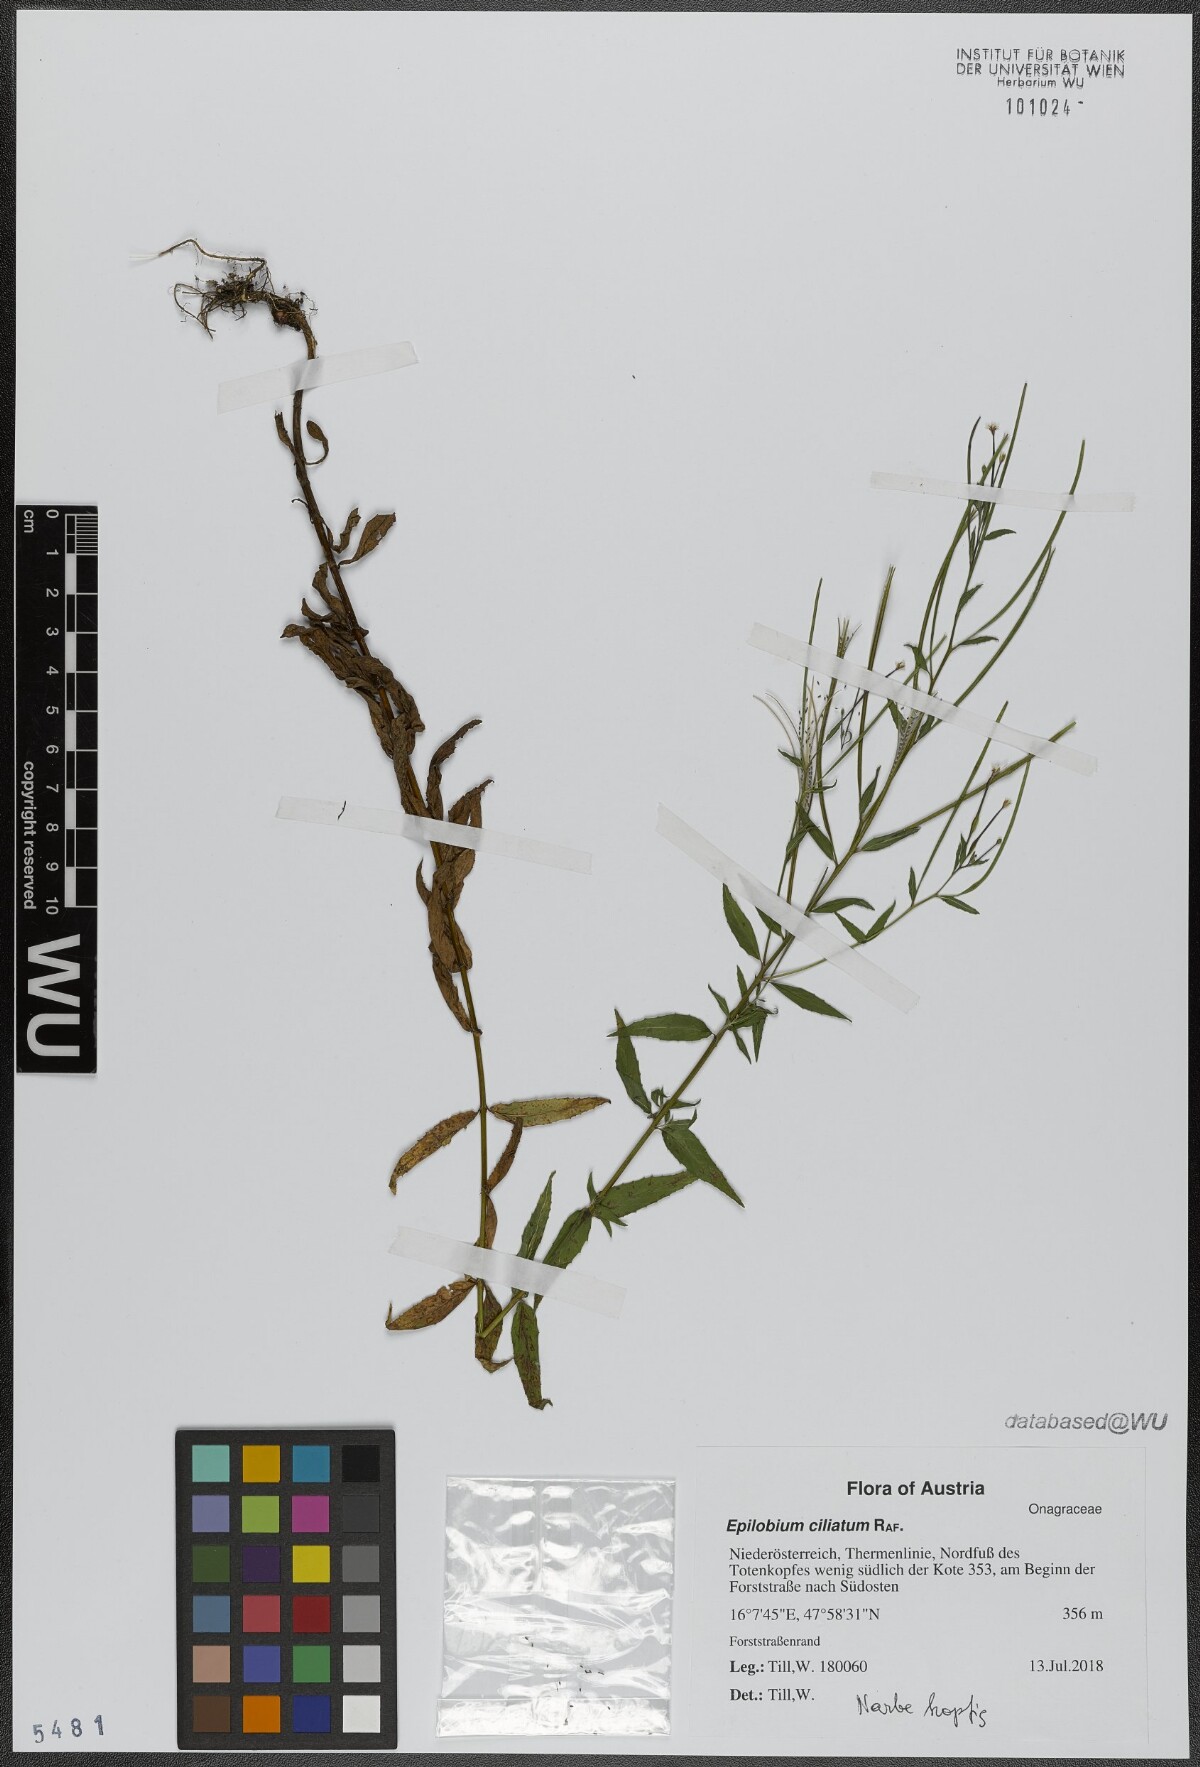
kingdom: Plantae
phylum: Tracheophyta
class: Magnoliopsida
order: Myrtales
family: Onagraceae
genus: Epilobium
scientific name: Epilobium ciliatum
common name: American willowherb
